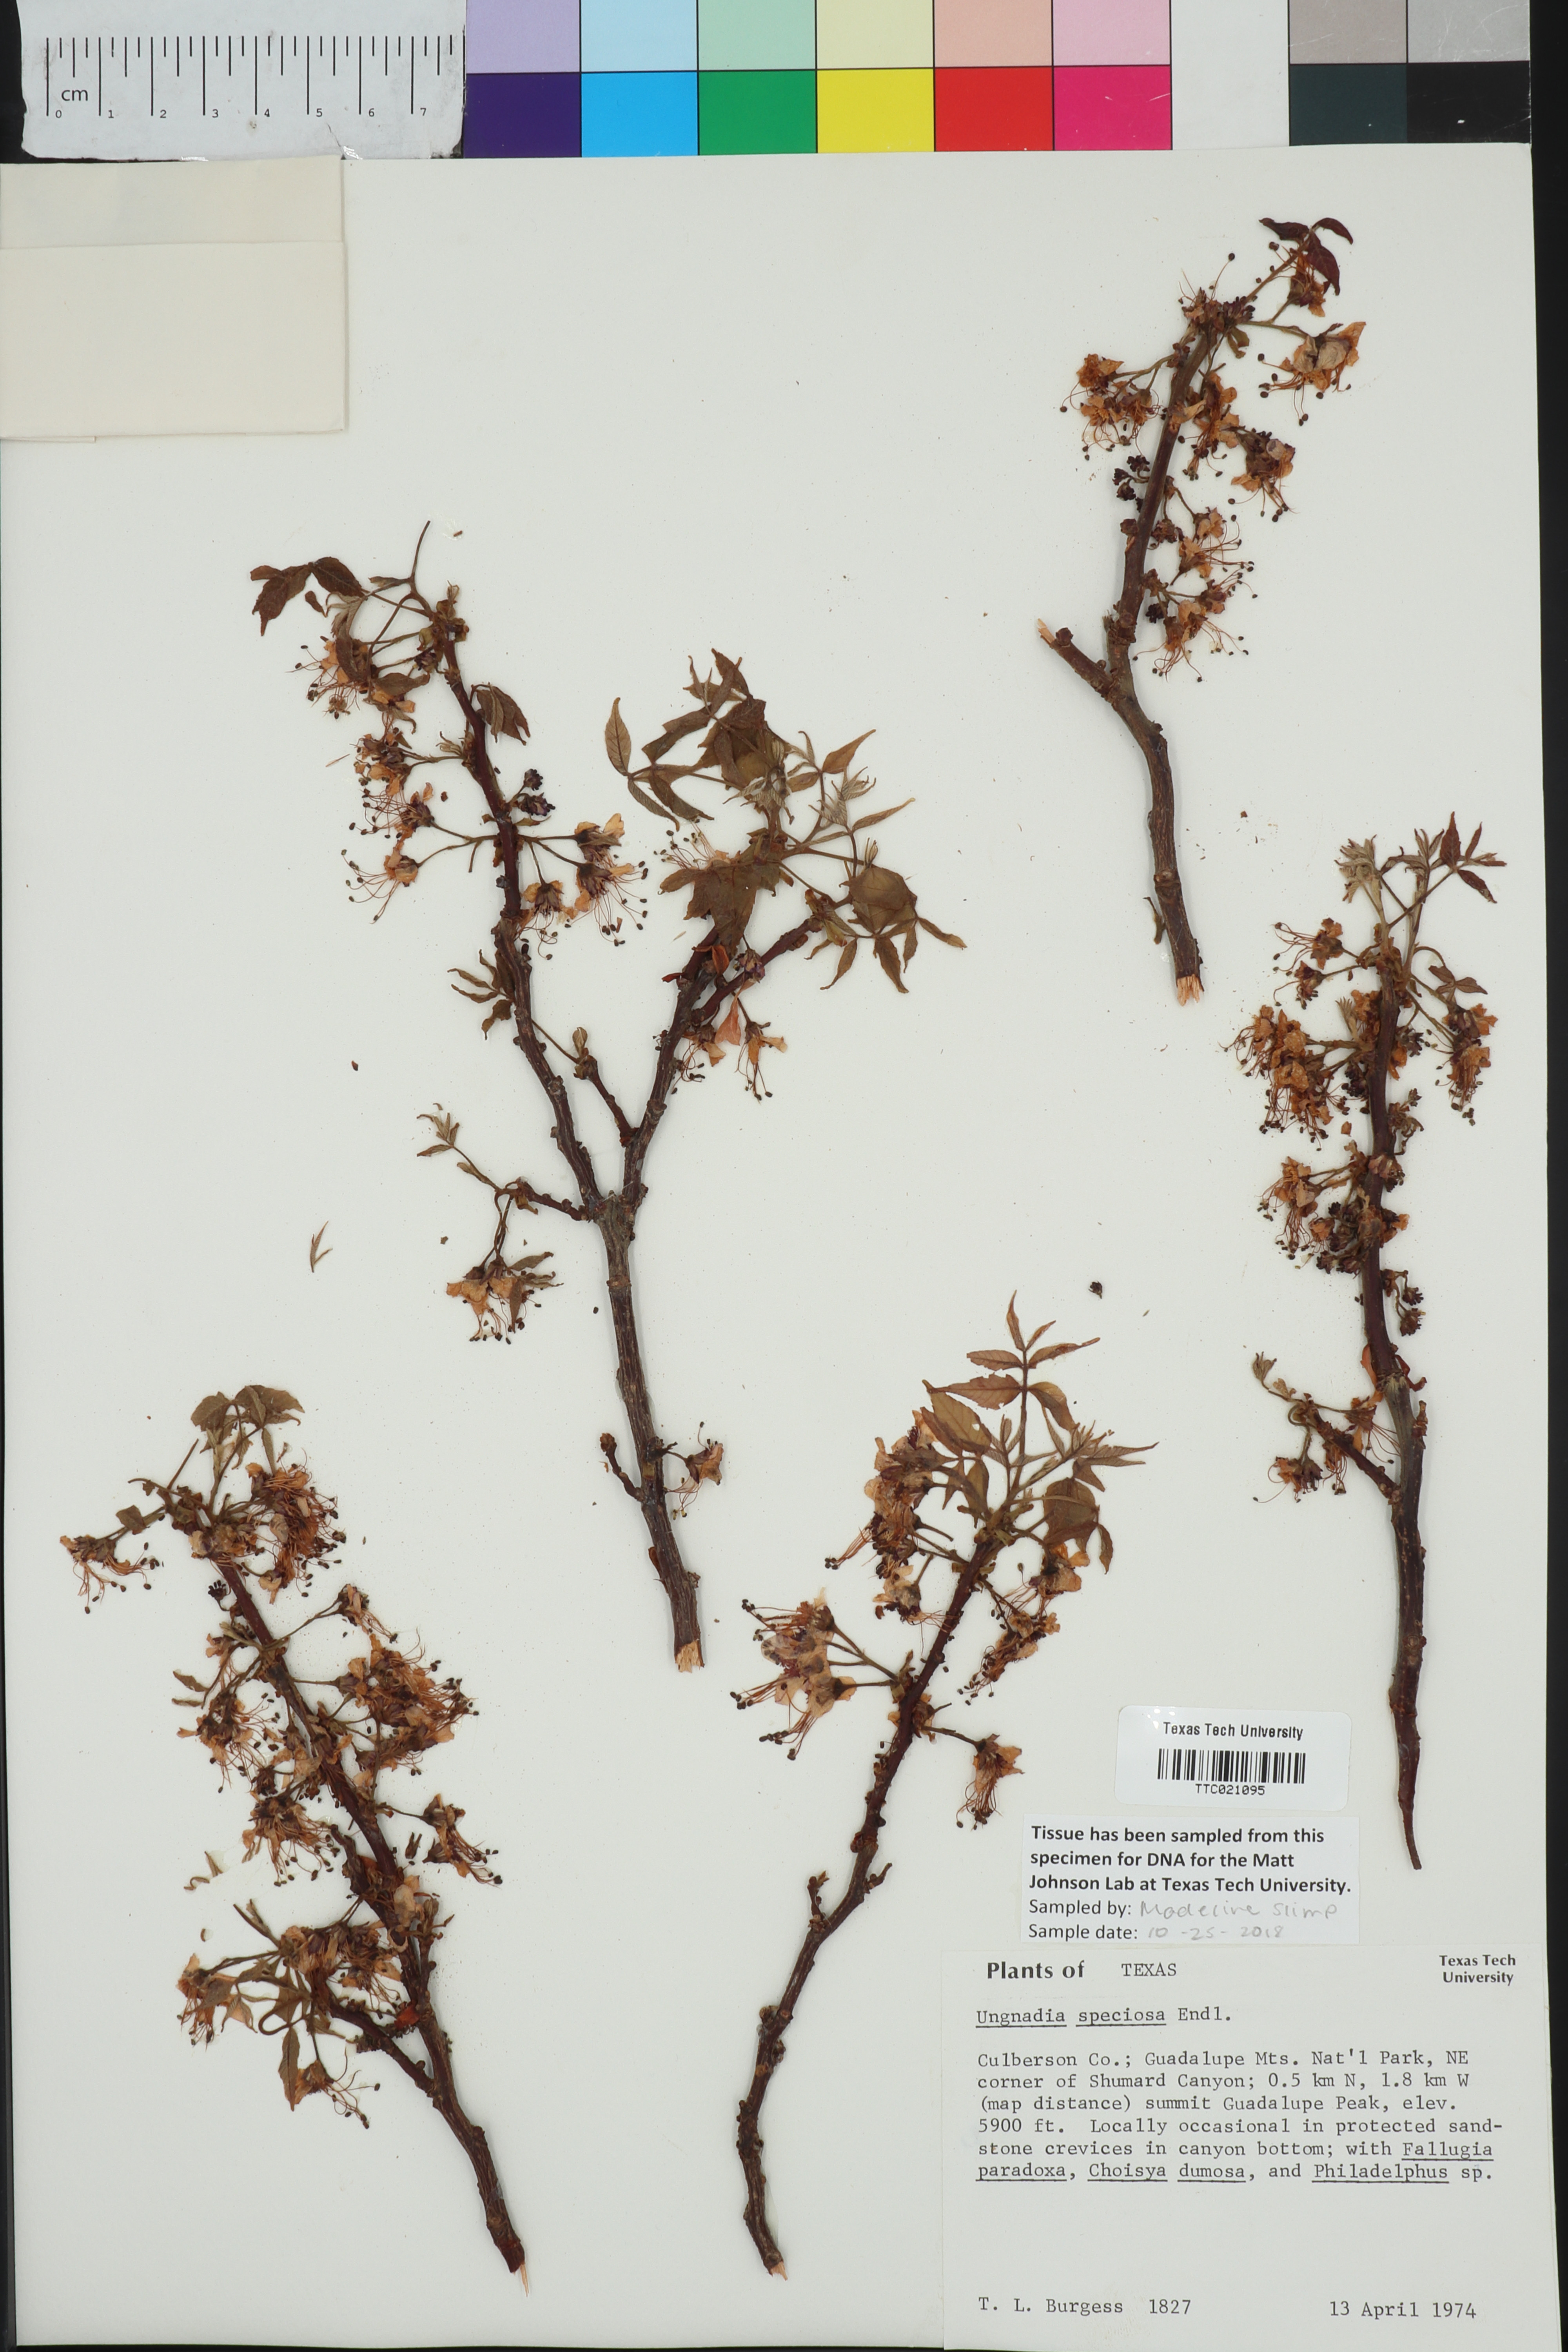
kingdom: Plantae
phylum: Tracheophyta
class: Magnoliopsida
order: Sapindales
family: Sapindaceae
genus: Ungnadia
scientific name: Ungnadia speciosa
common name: Texas-buckeye
